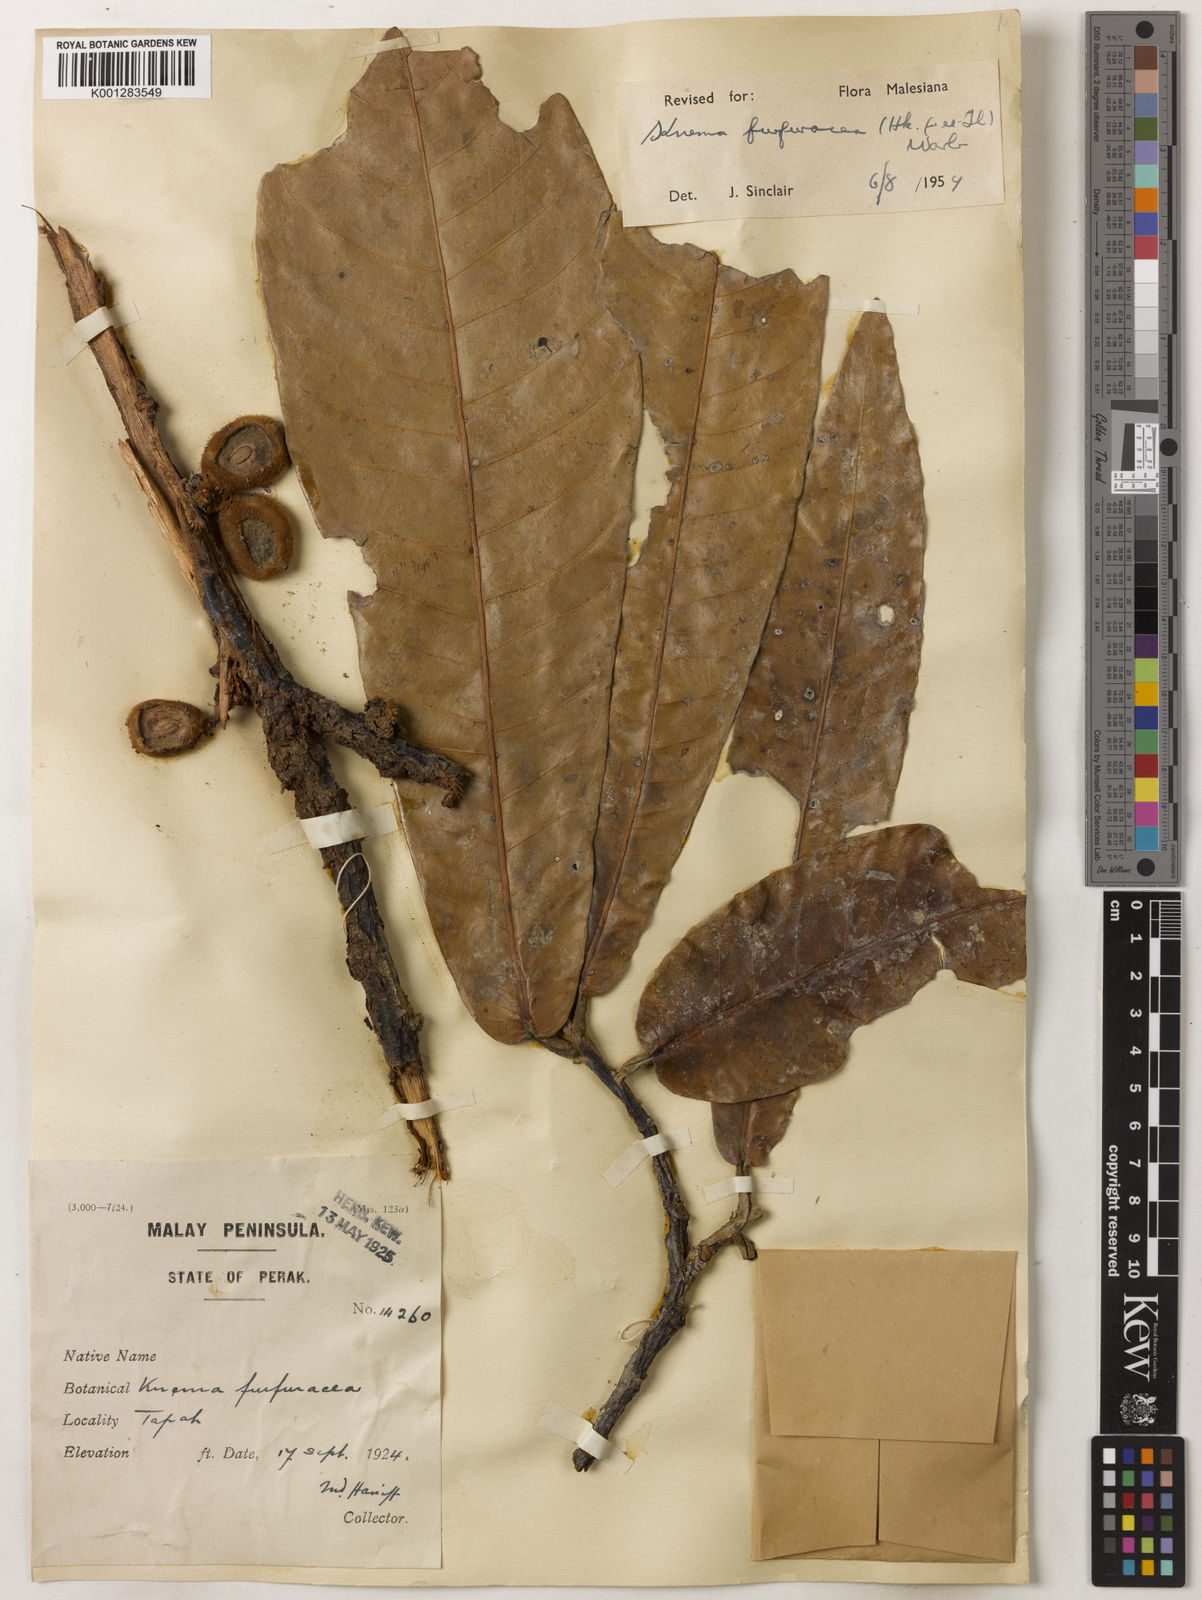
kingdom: Plantae
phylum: Tracheophyta
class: Magnoliopsida
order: Magnoliales
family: Myristicaceae
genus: Knema
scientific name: Knema furfuracea
